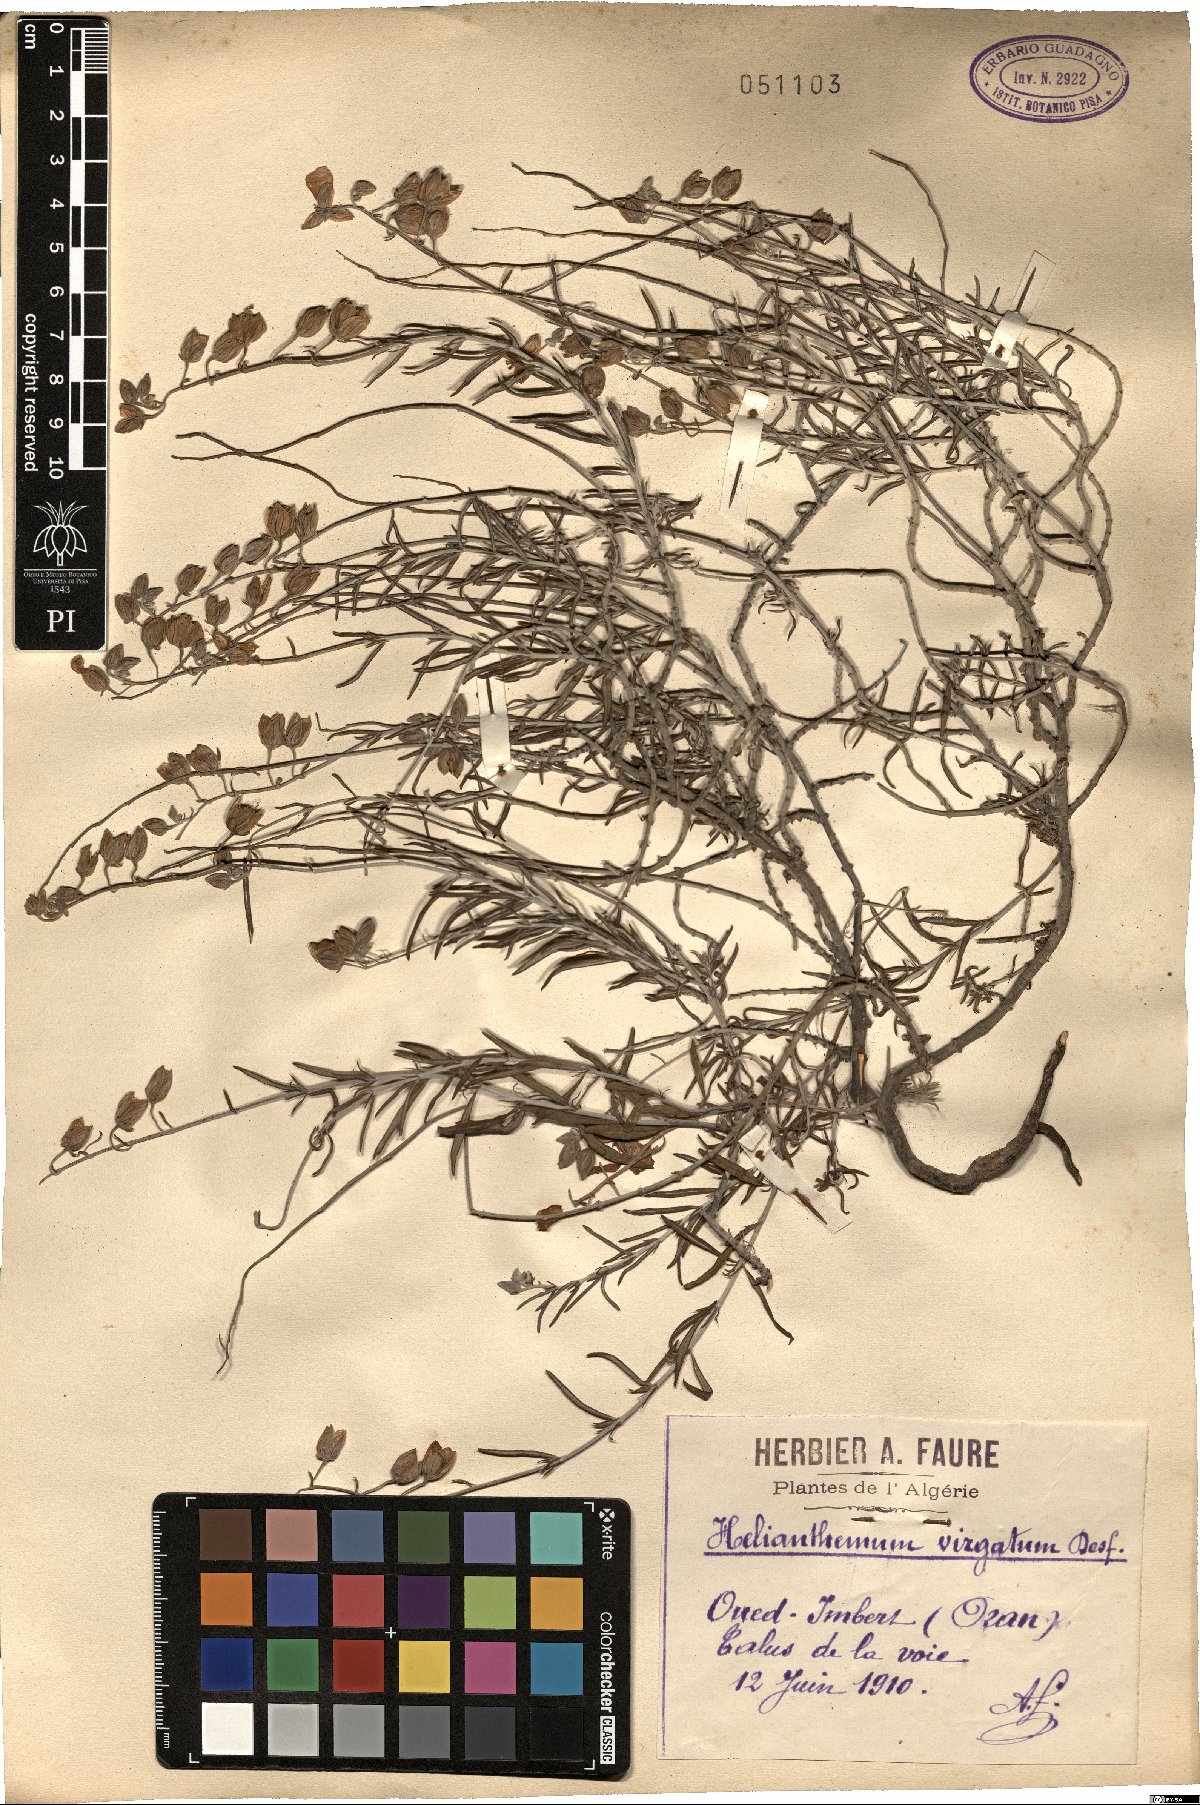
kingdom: Plantae
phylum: Tracheophyta
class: Magnoliopsida
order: Malvales
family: Cistaceae
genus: Helianthemum
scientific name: Helianthemum virgatum
